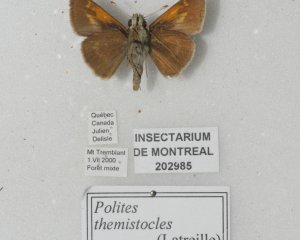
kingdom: Animalia
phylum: Arthropoda
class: Insecta
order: Lepidoptera
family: Hesperiidae
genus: Polites
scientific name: Polites themistocles
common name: Tawny-edged Skipper
